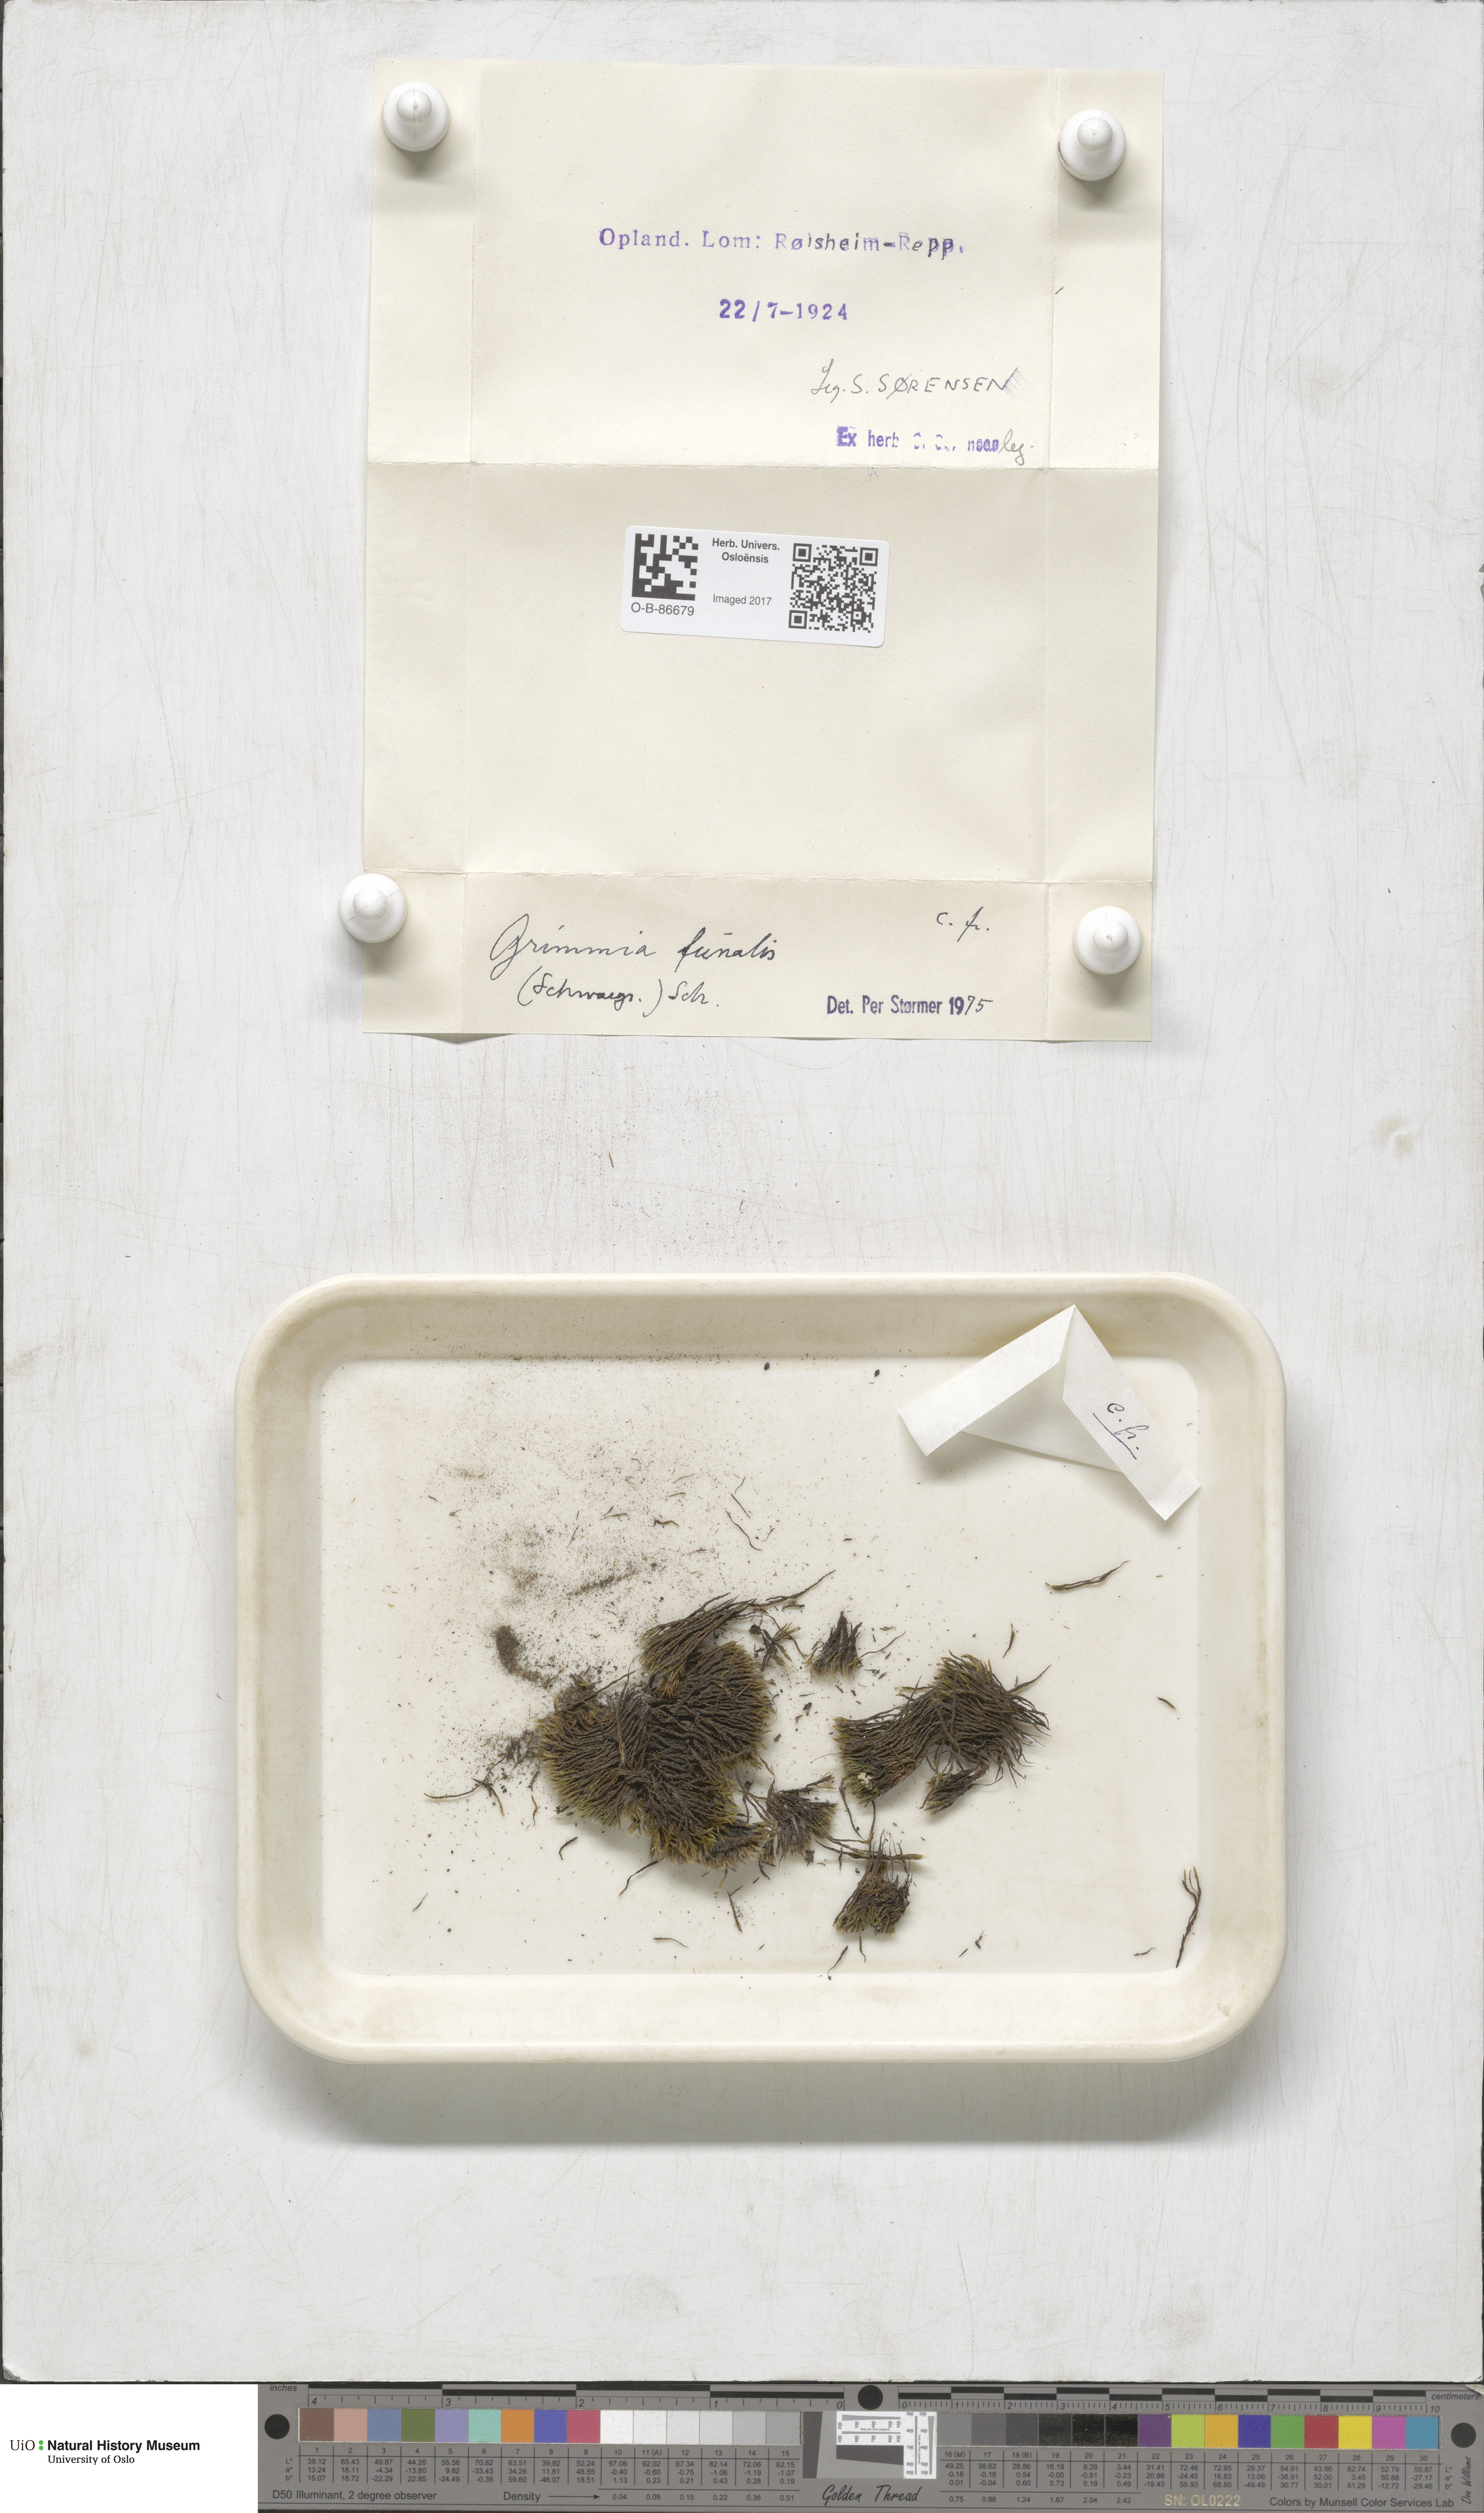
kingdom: Plantae
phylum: Bryophyta
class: Bryopsida
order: Grimmiales
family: Grimmiaceae
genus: Grimmia
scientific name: Grimmia funalis
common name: String grimmia
